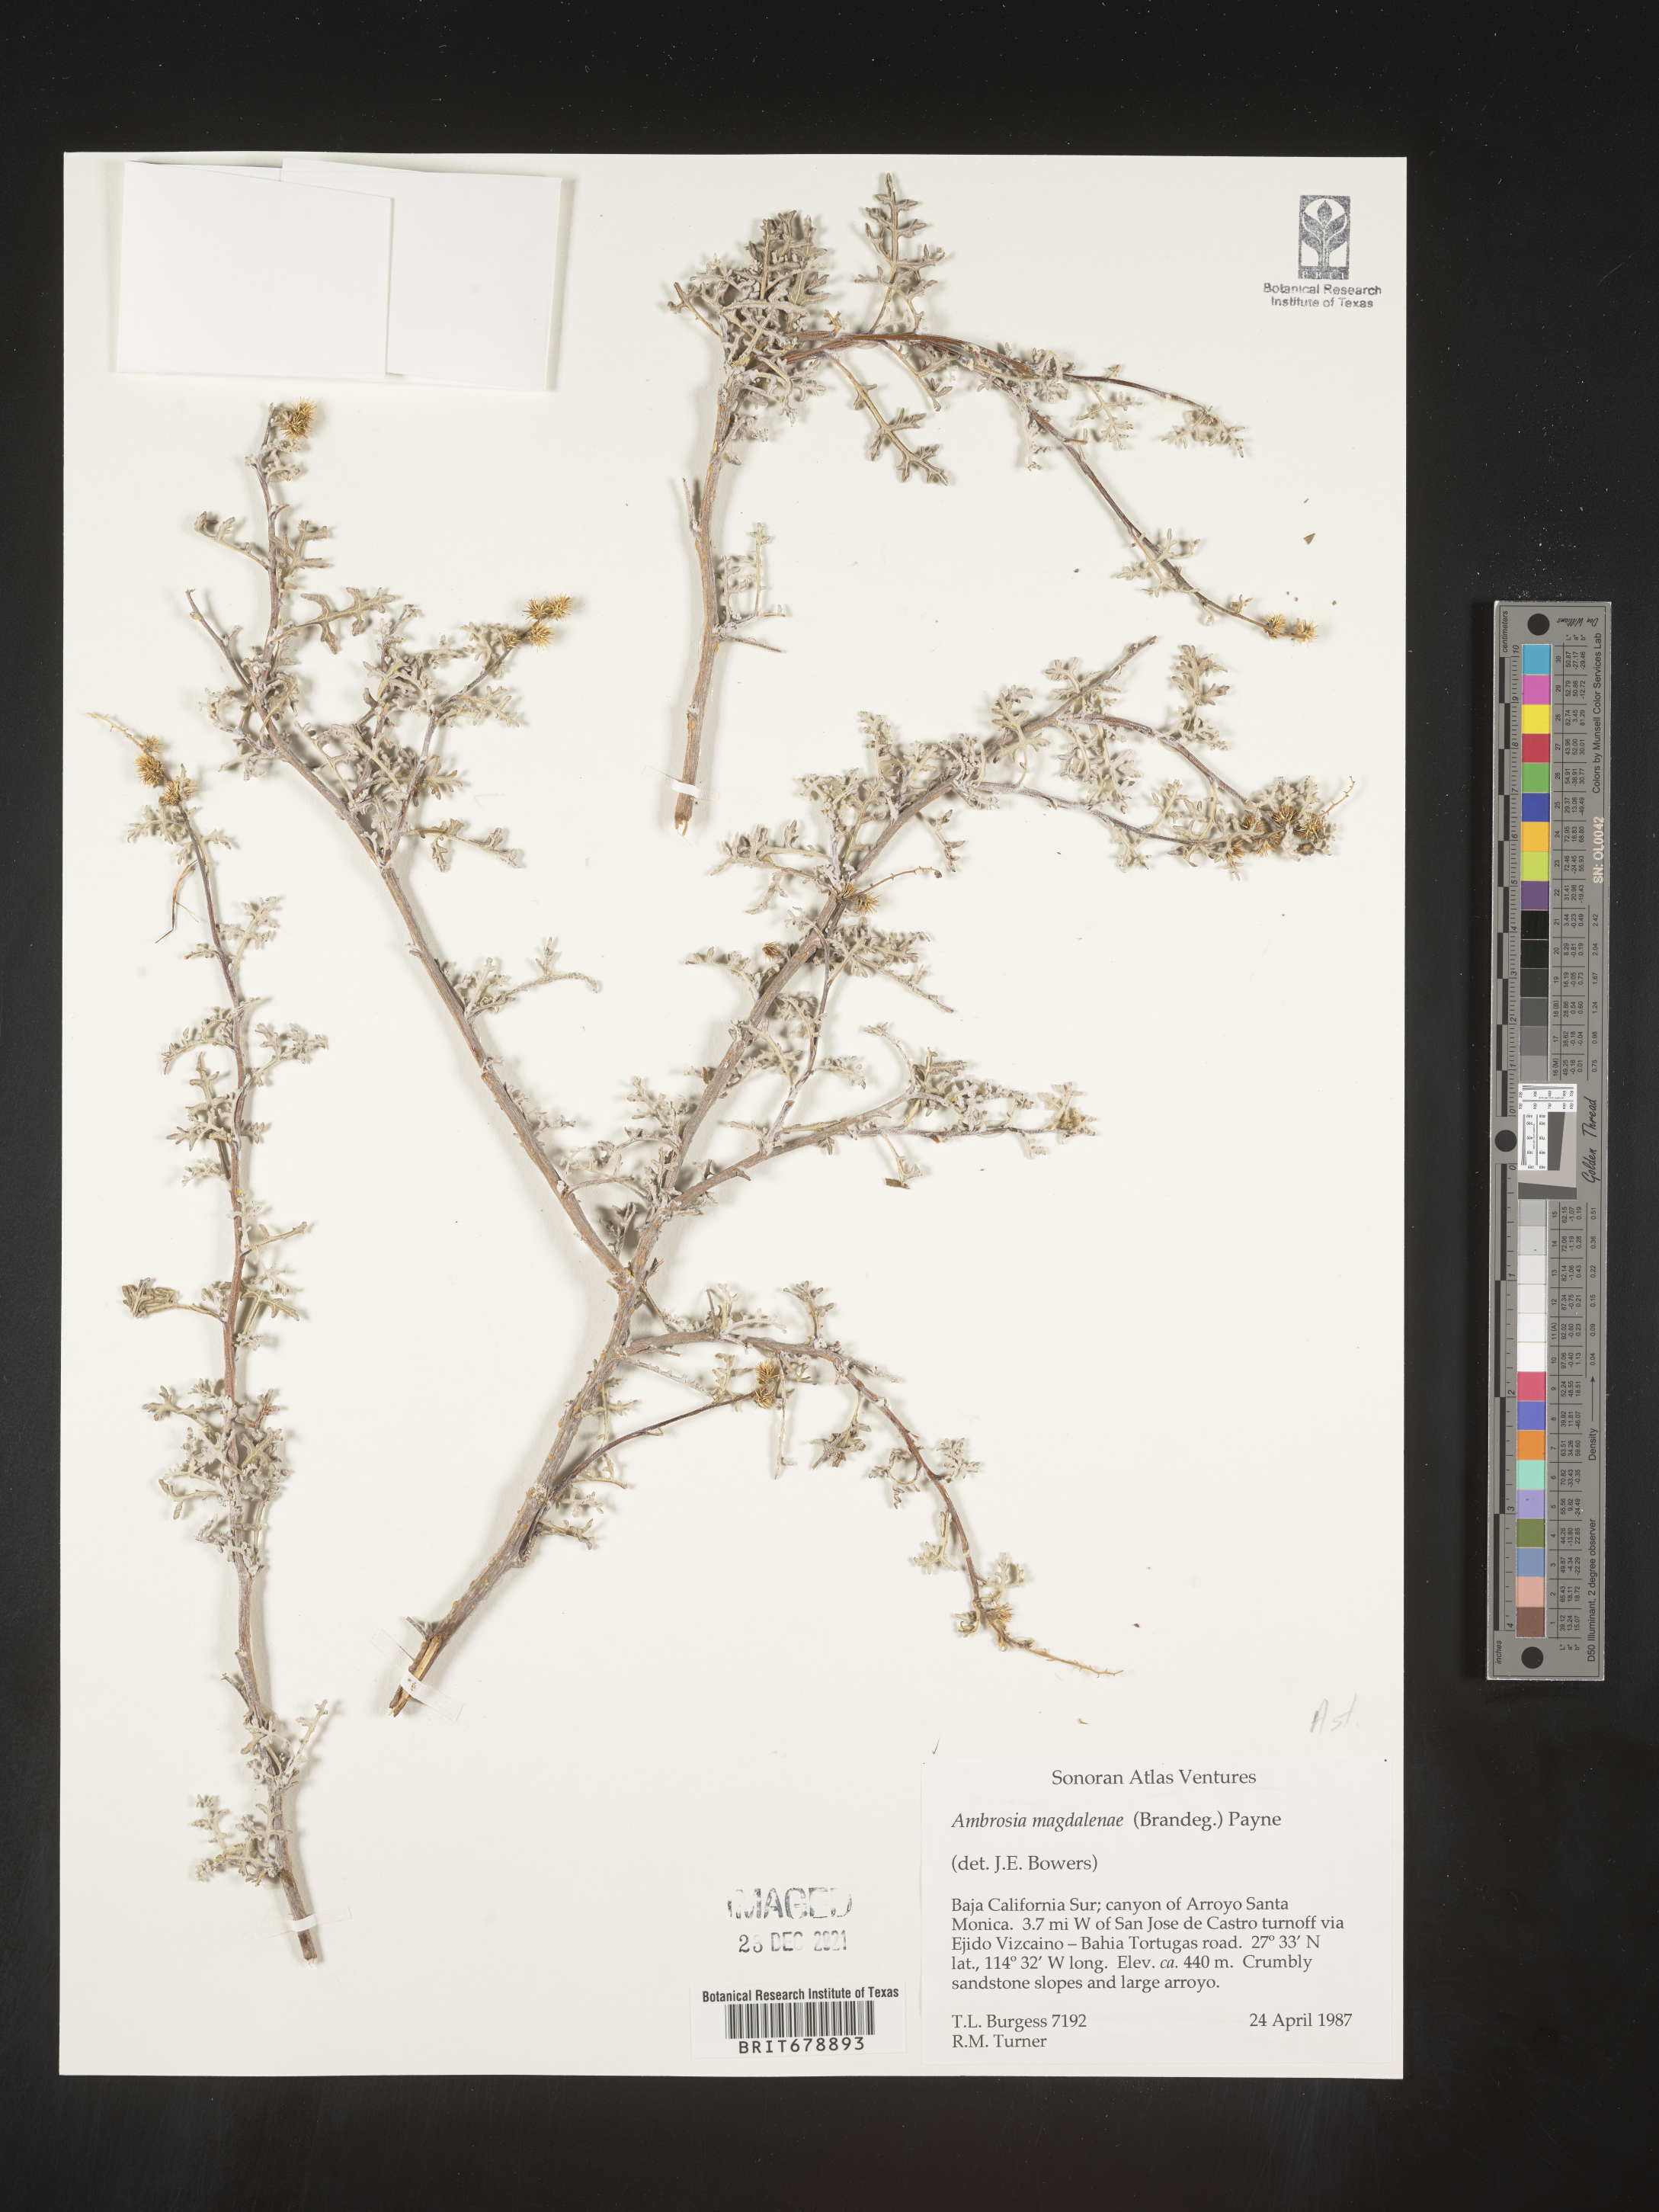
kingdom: Plantae
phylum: Tracheophyta
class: Magnoliopsida
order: Asterales
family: Asteraceae
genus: Ambrosia
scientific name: Ambrosia magdalenae
